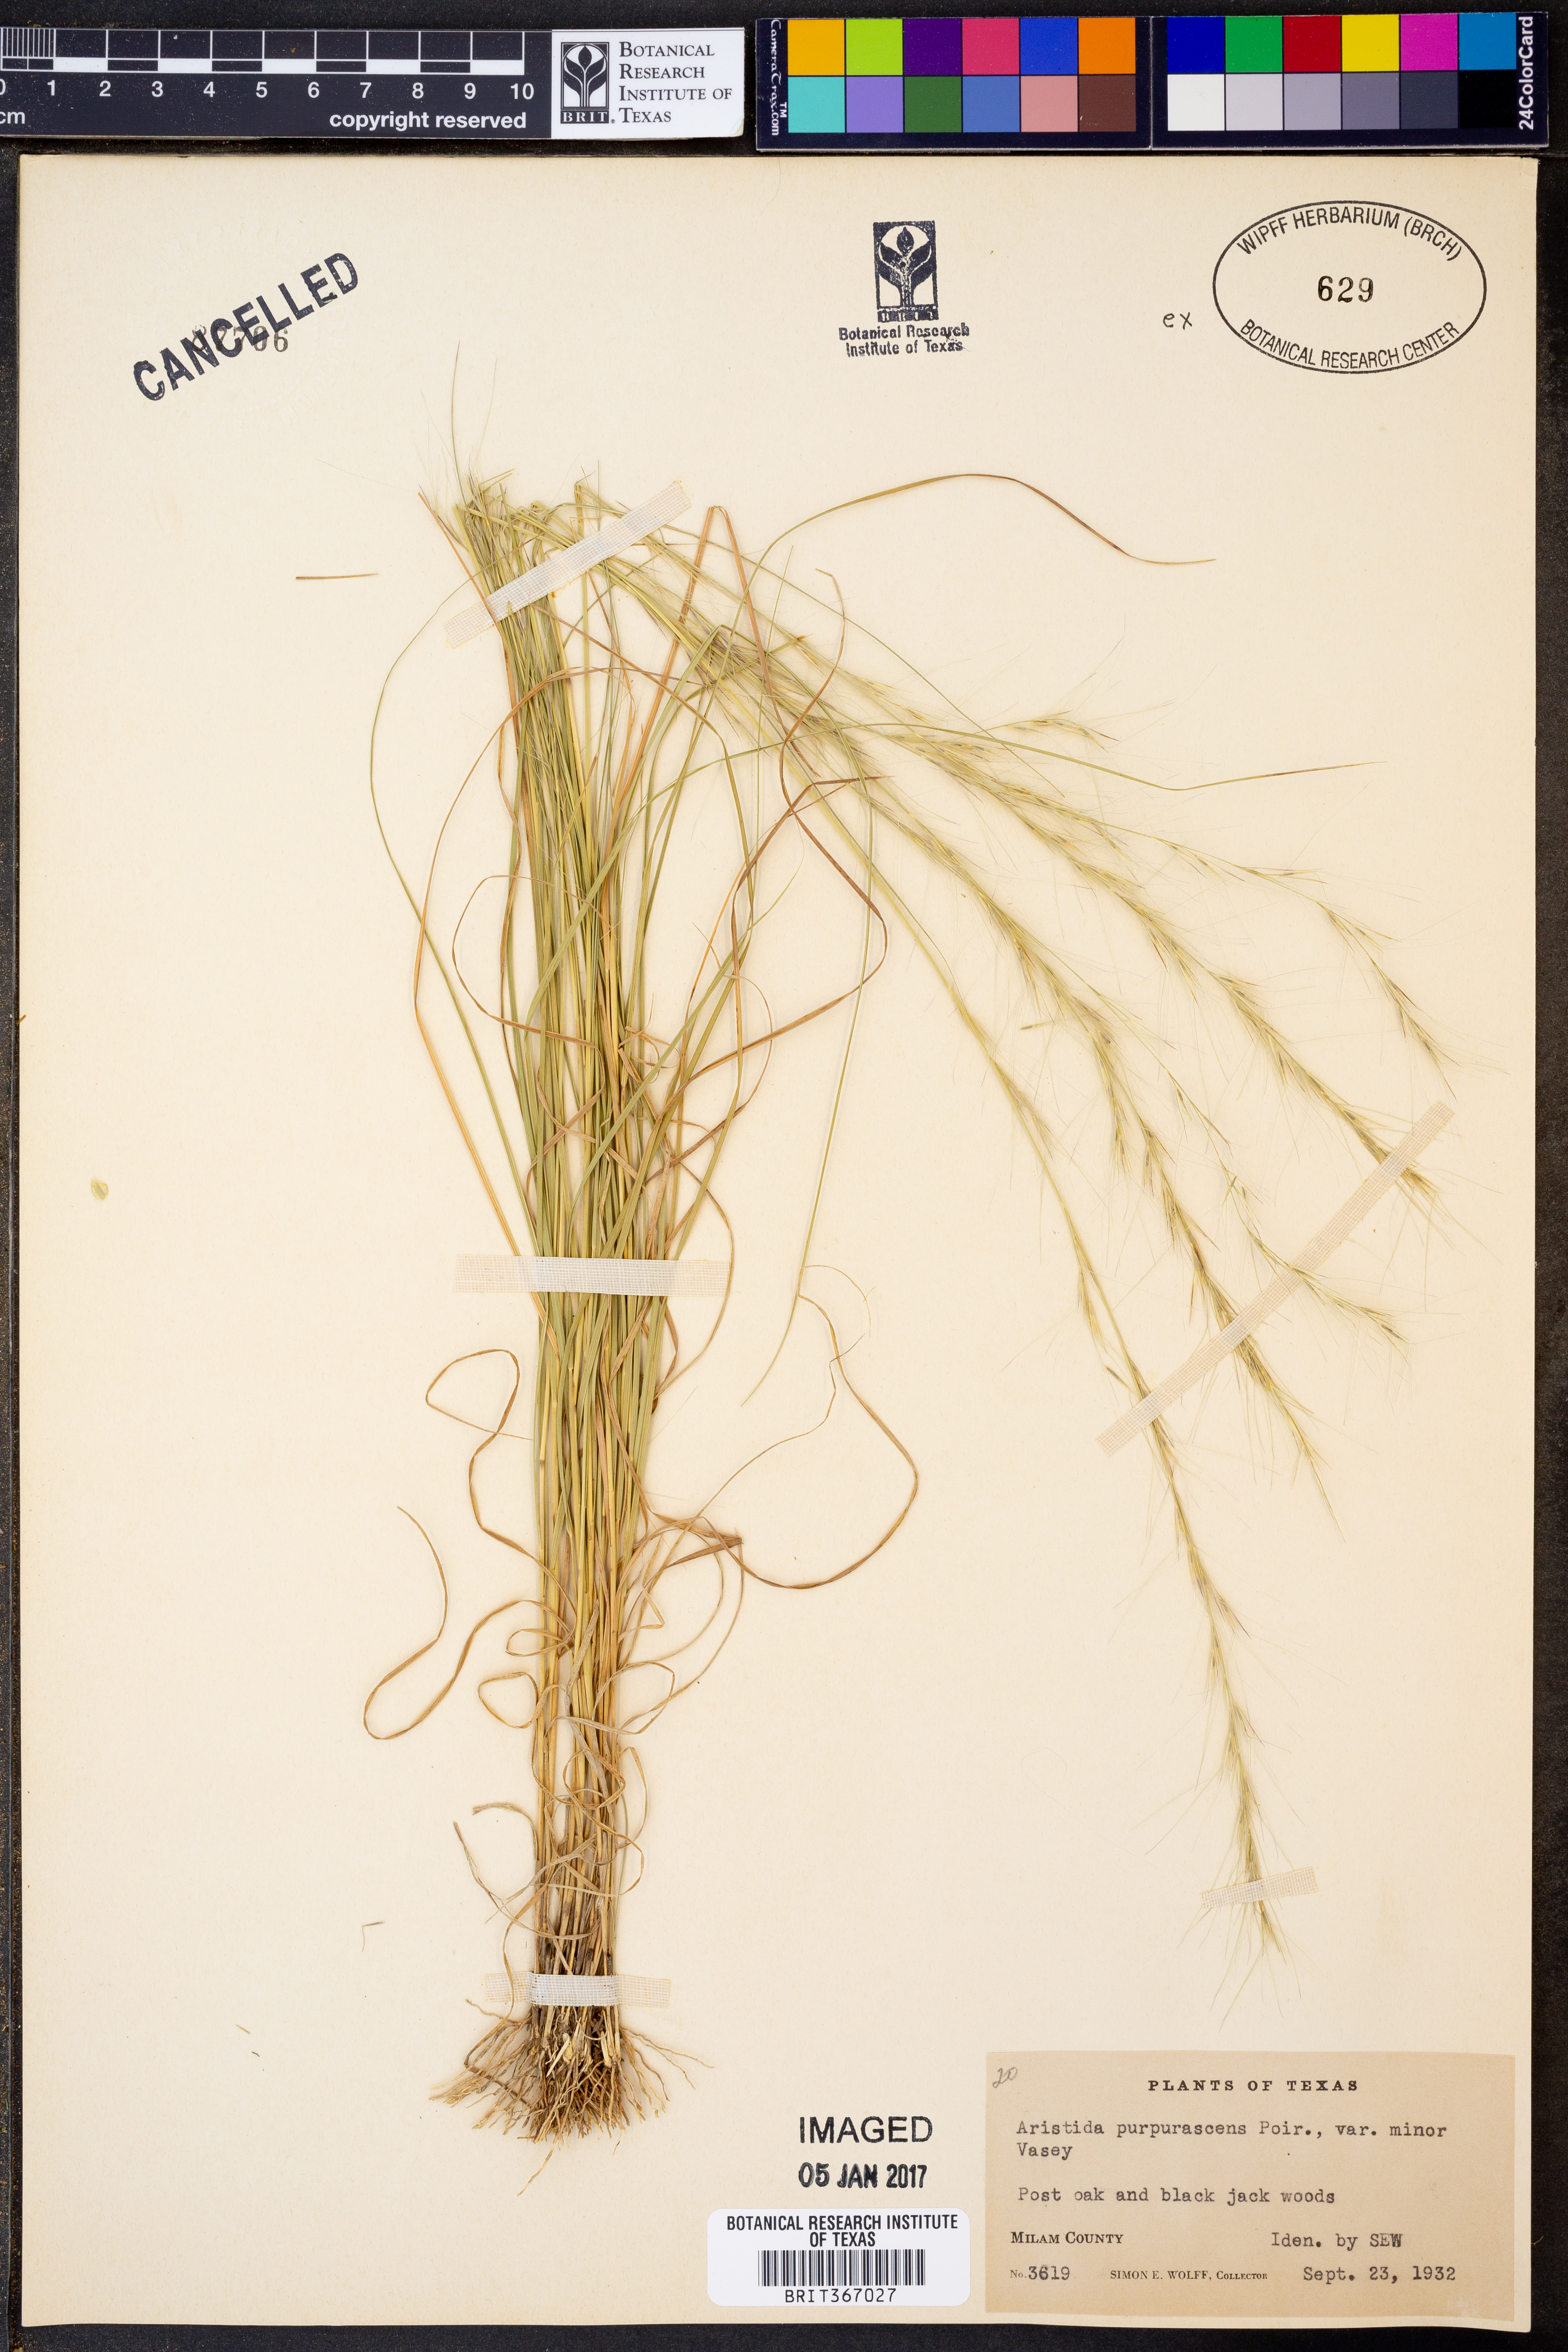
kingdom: Plantae
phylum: Tracheophyta
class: Liliopsida
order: Poales
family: Poaceae
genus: Aristida
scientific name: Aristida purpurascens
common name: Arrow-feather
